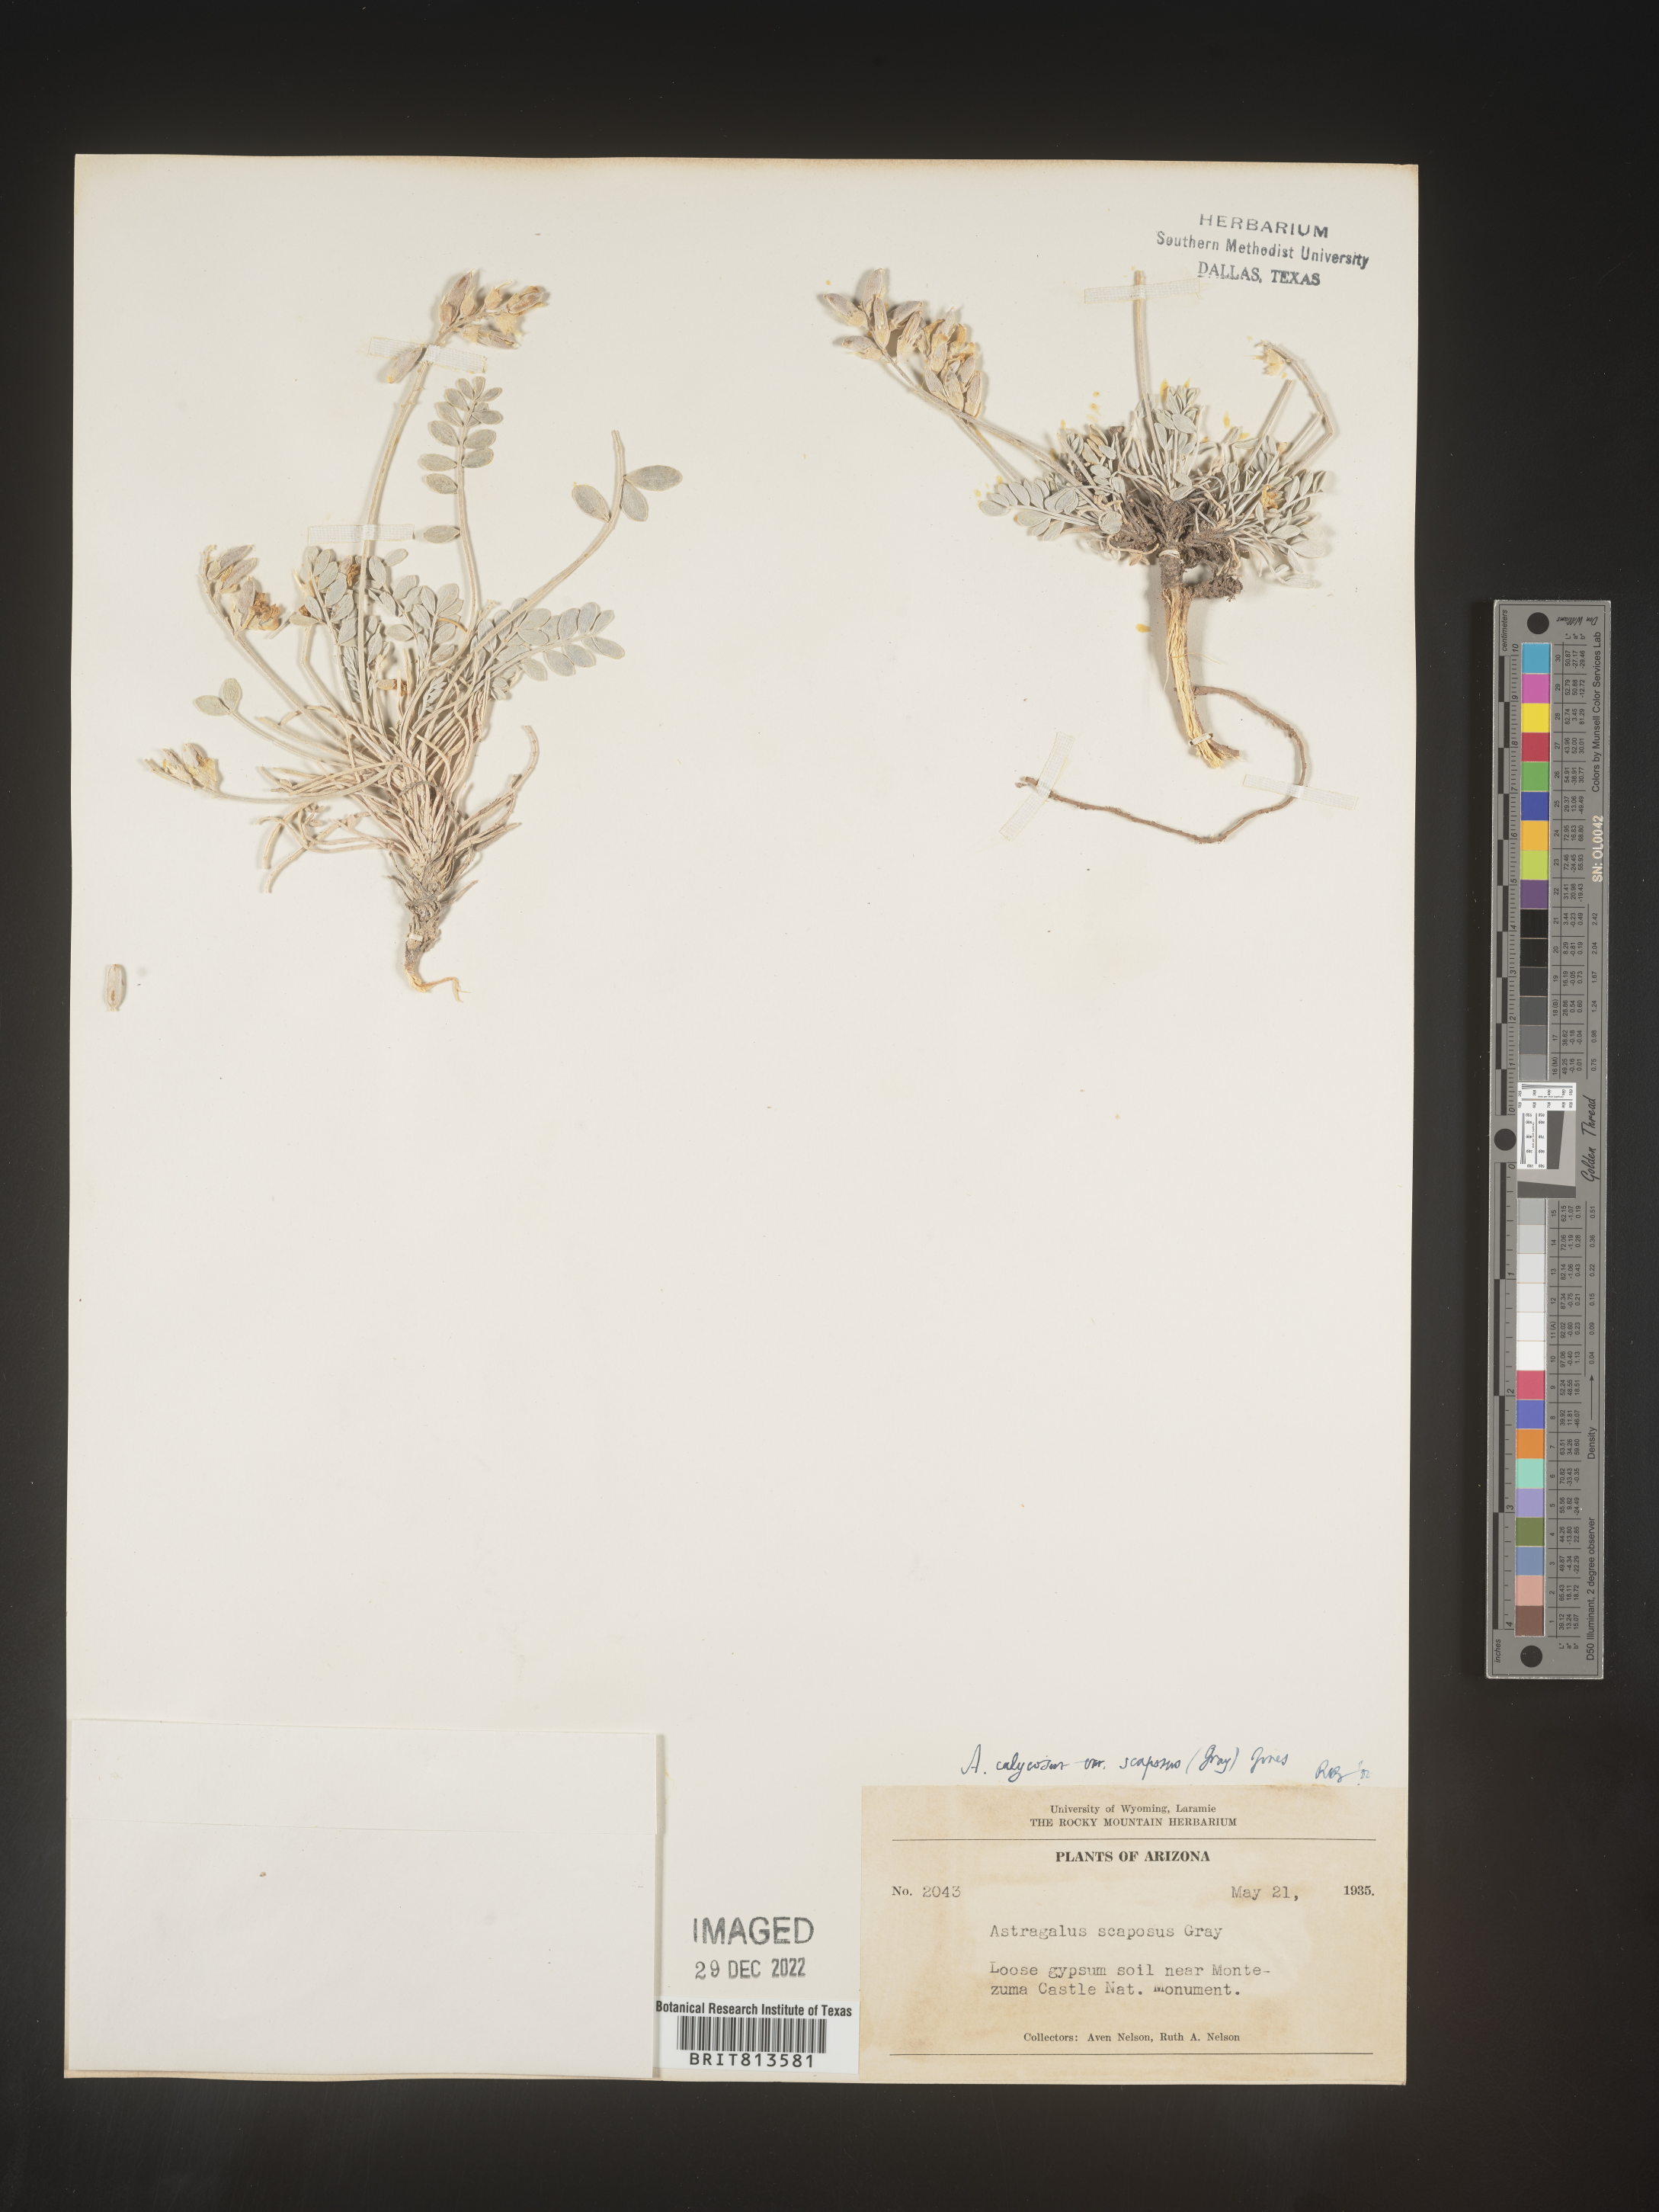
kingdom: Plantae
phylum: Tracheophyta
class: Magnoliopsida
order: Fabales
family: Fabaceae
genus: Astragalus
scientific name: Astragalus
